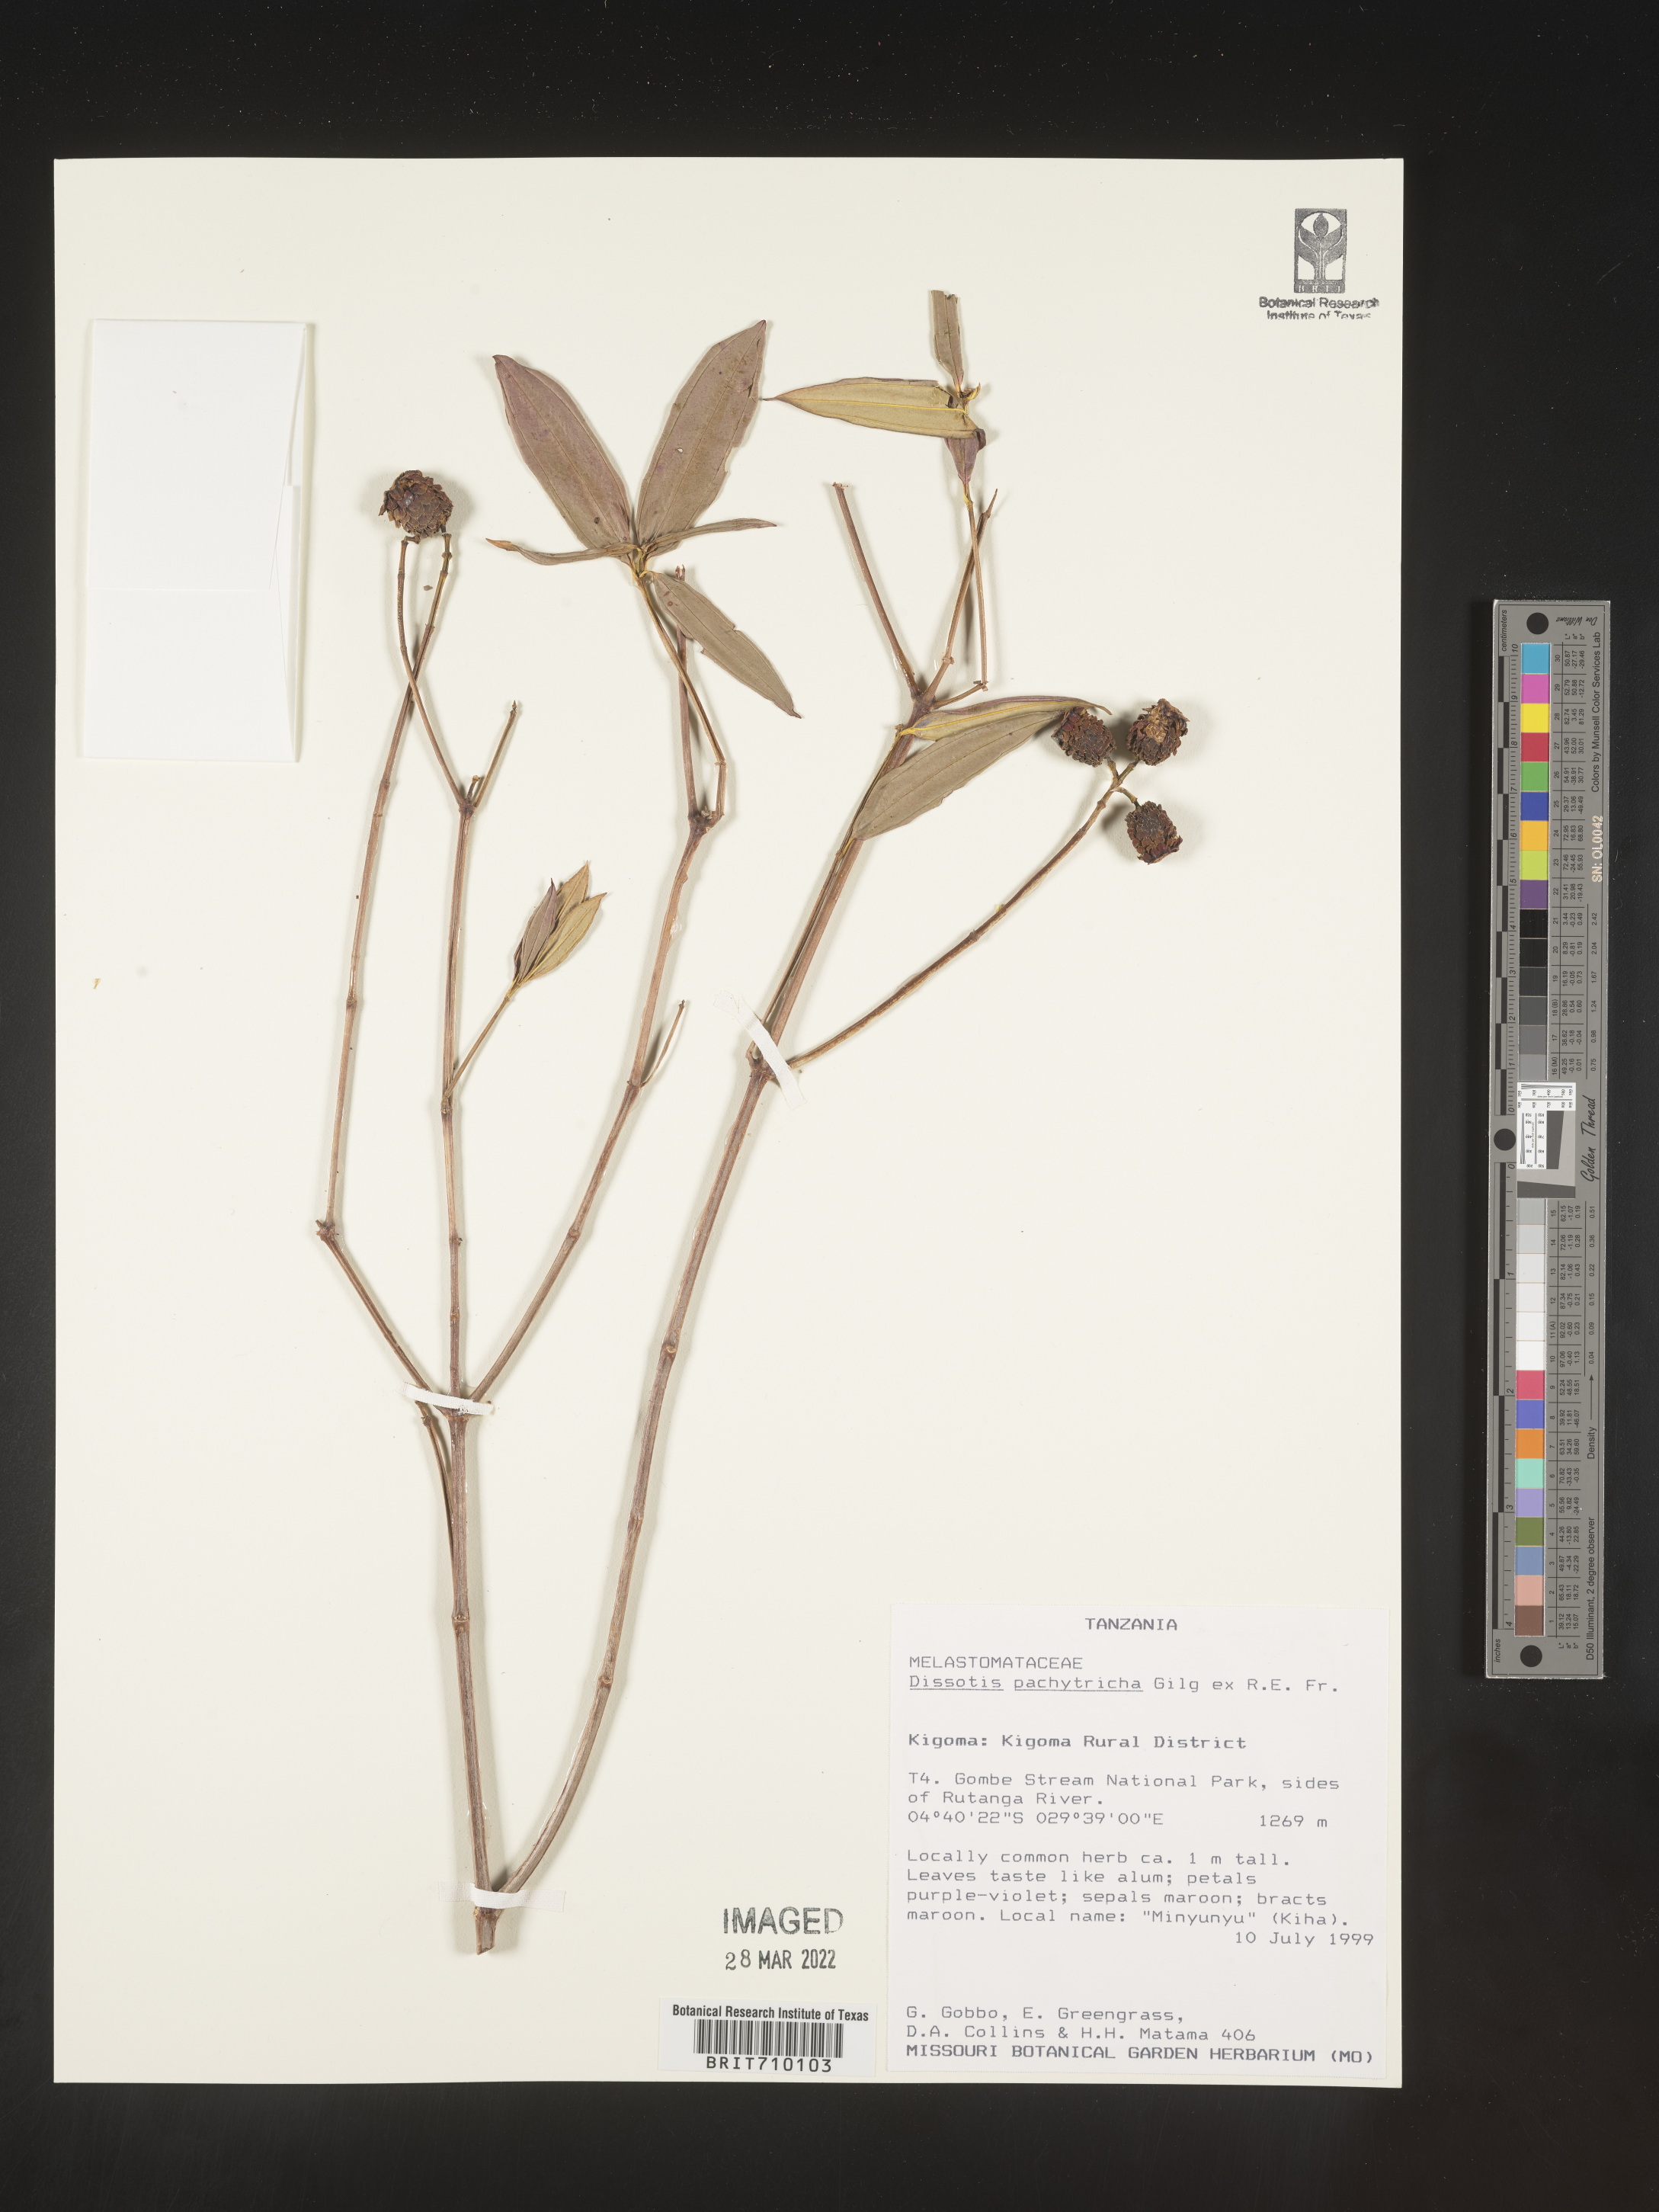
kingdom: Plantae
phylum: Tracheophyta
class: Magnoliopsida
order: Myrtales
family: Melastomataceae
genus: Dissotis
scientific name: Dissotis
